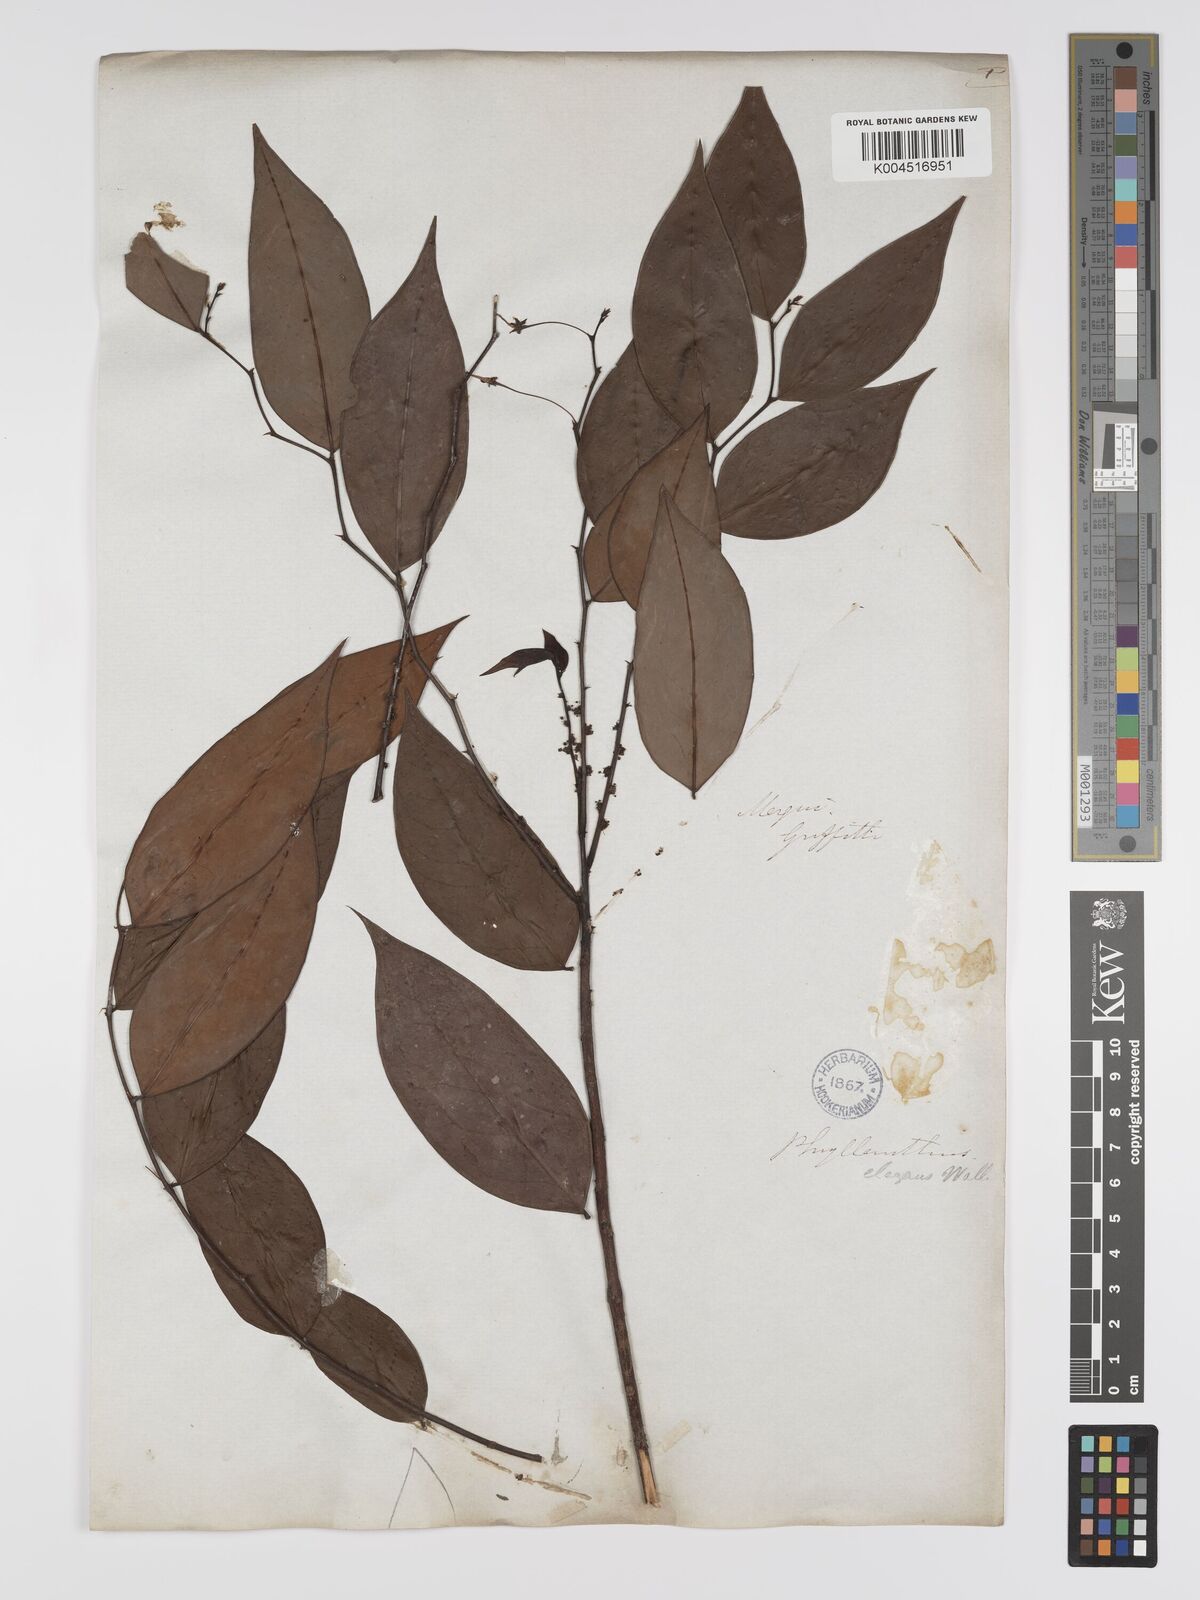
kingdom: Plantae
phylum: Tracheophyta
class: Magnoliopsida
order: Malpighiales
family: Phyllanthaceae
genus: Phyllanthus
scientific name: Phyllanthus elegans
